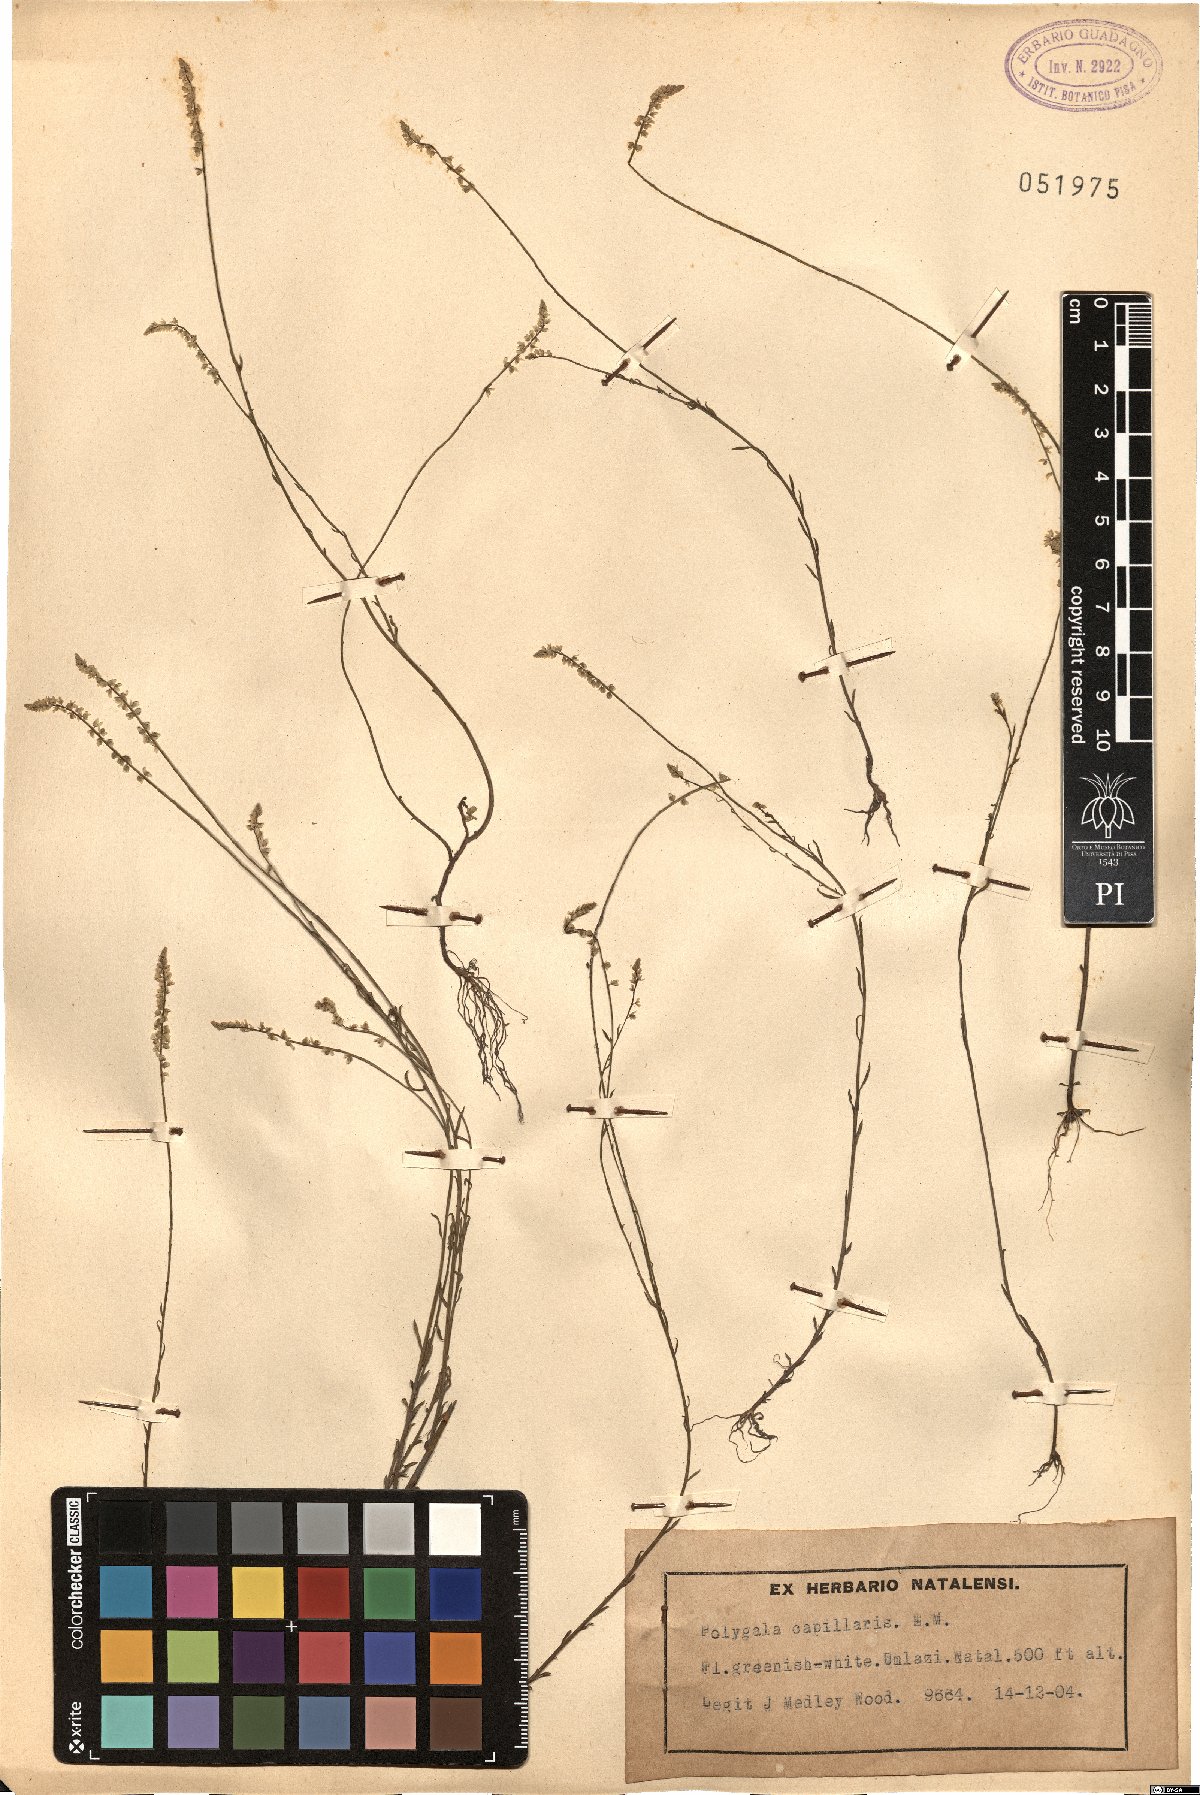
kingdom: Plantae
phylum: Tracheophyta
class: Magnoliopsida
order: Fabales
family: Polygalaceae
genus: Polygala
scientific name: Polygala capillaris
